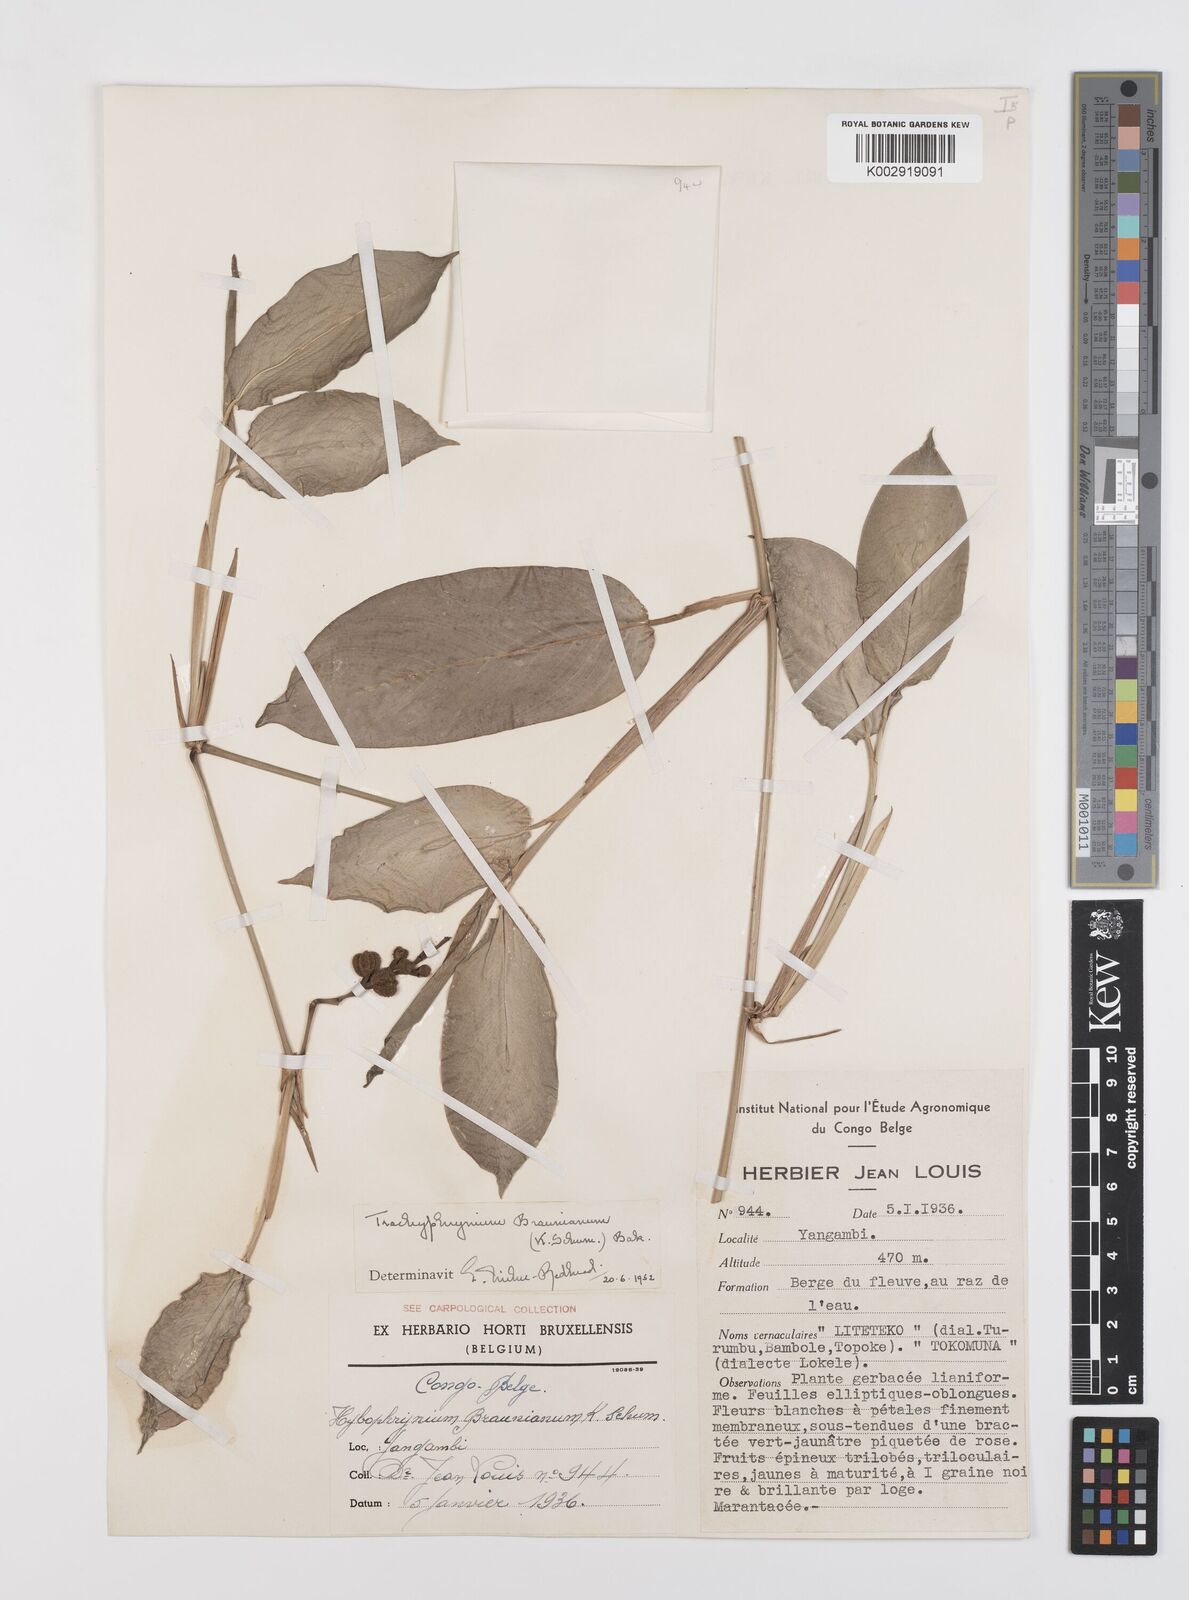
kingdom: Plantae
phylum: Tracheophyta
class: Liliopsida
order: Zingiberales
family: Marantaceae
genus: Trachyphrynium
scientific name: Trachyphrynium braunianum
